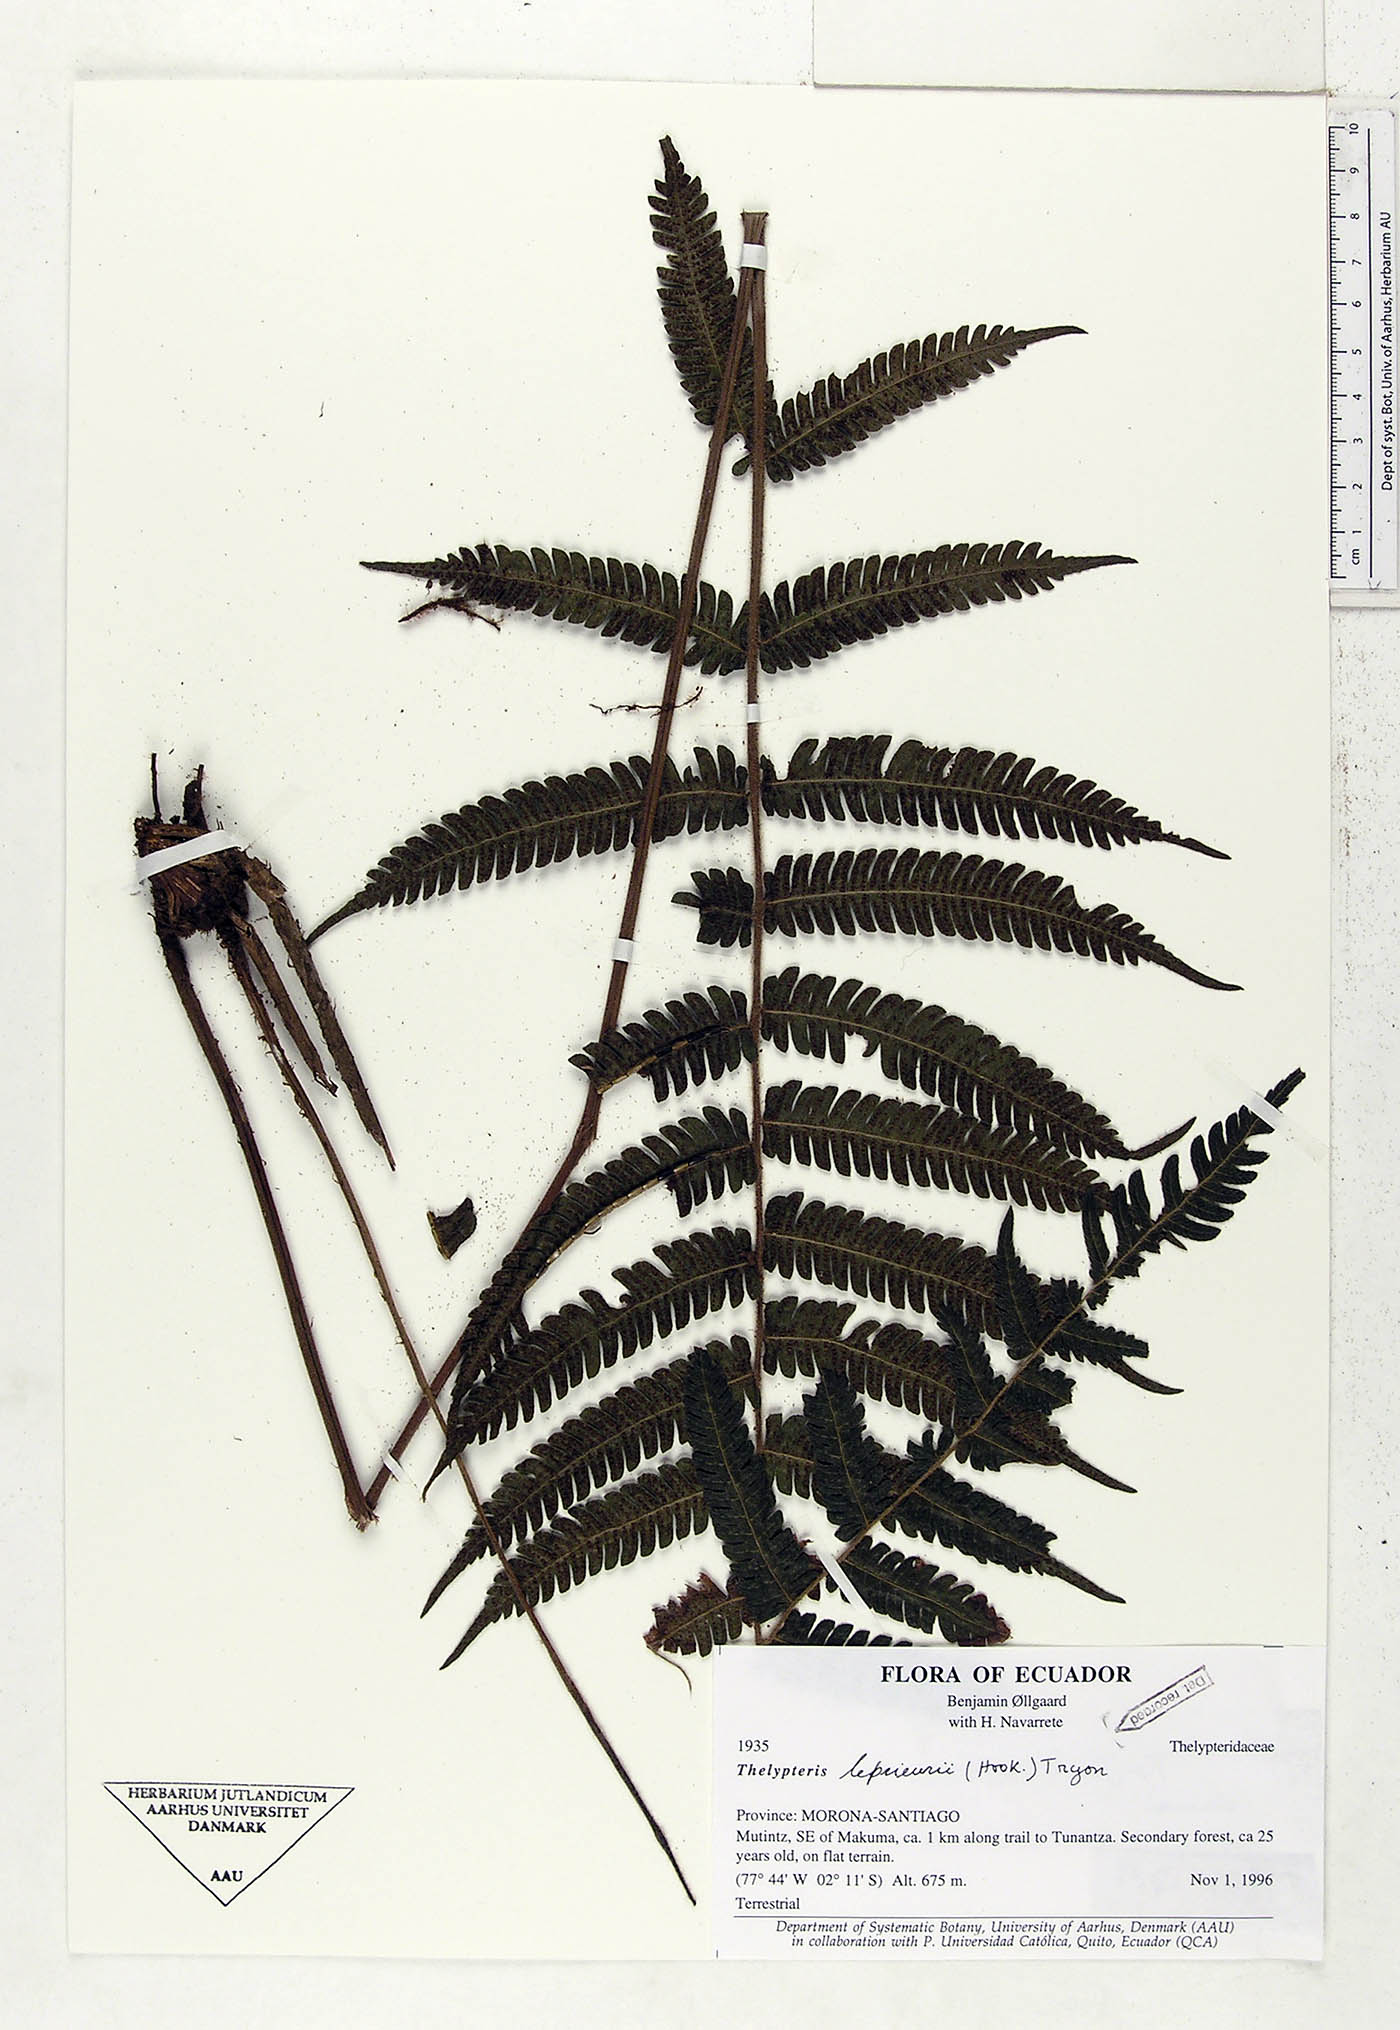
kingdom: Plantae
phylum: Tracheophyta
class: Polypodiopsida
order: Polypodiales
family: Thelypteridaceae
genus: Steiropteris
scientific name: Steiropteris leprieurii
